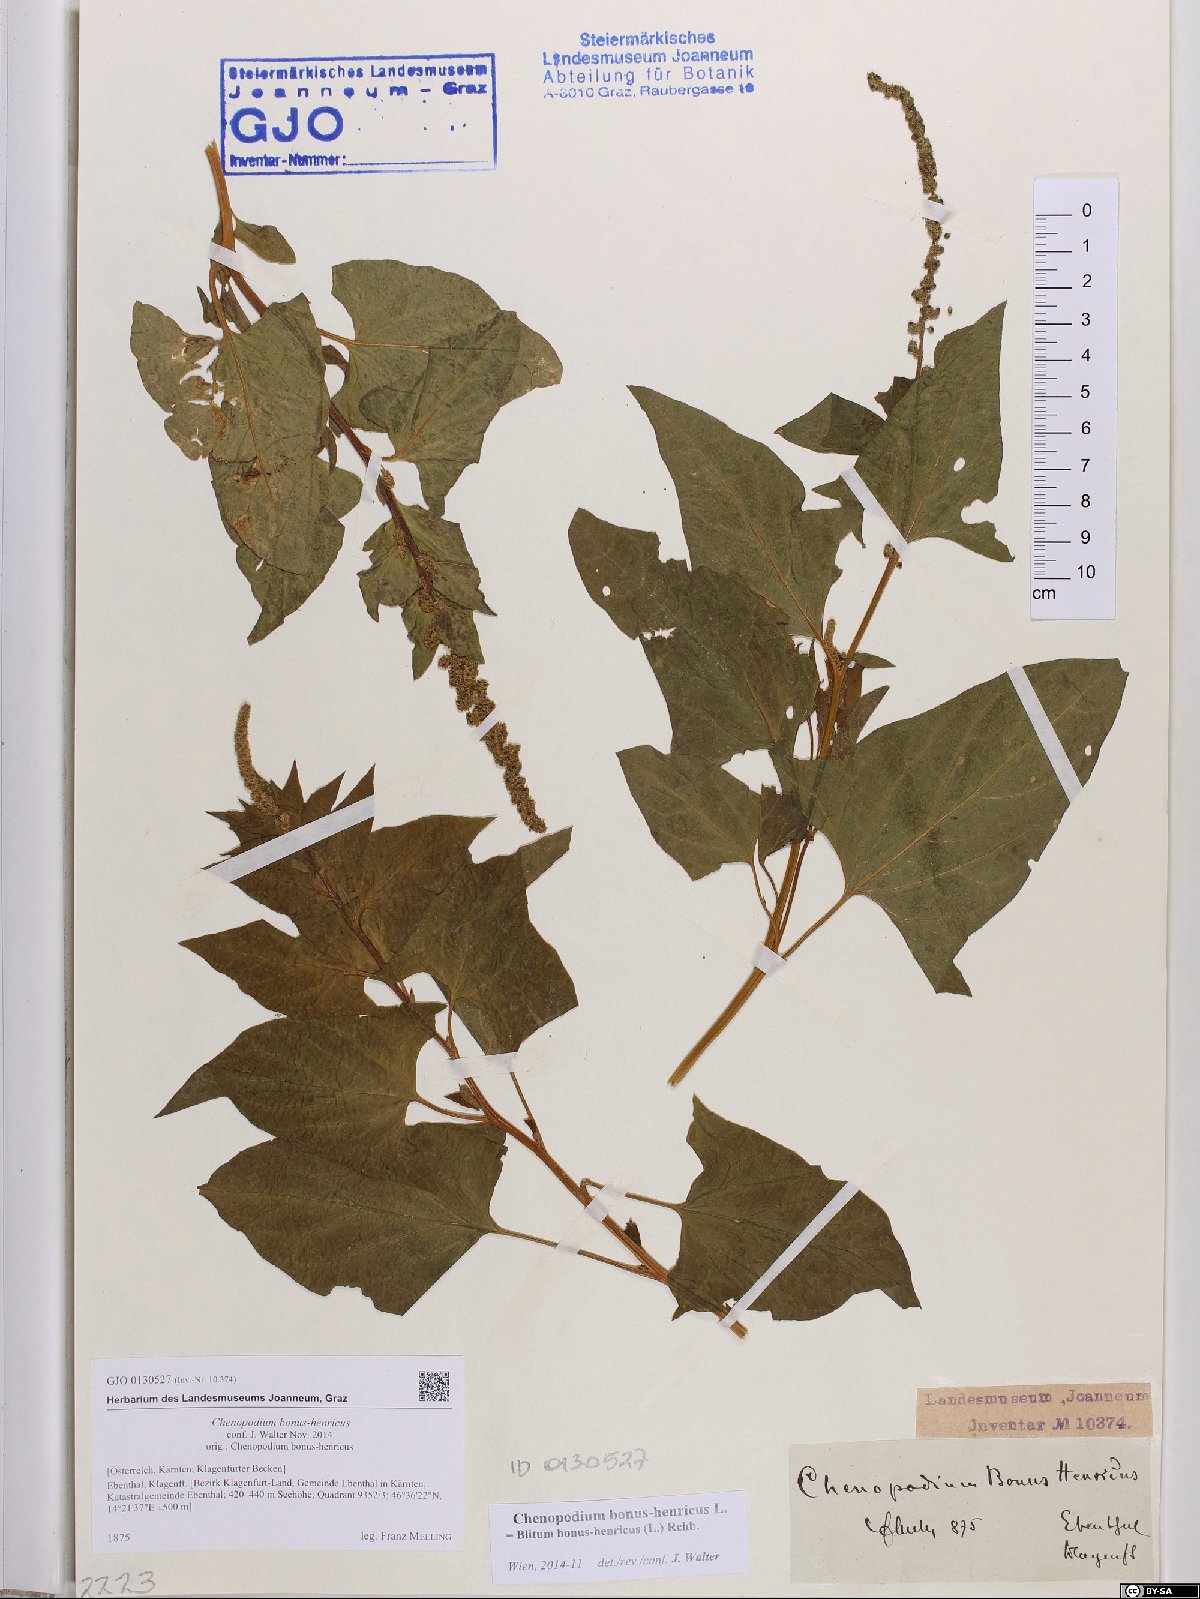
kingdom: Plantae
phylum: Tracheophyta
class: Magnoliopsida
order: Caryophyllales
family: Amaranthaceae
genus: Blitum
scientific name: Blitum bonus-henricus
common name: Good king henry
